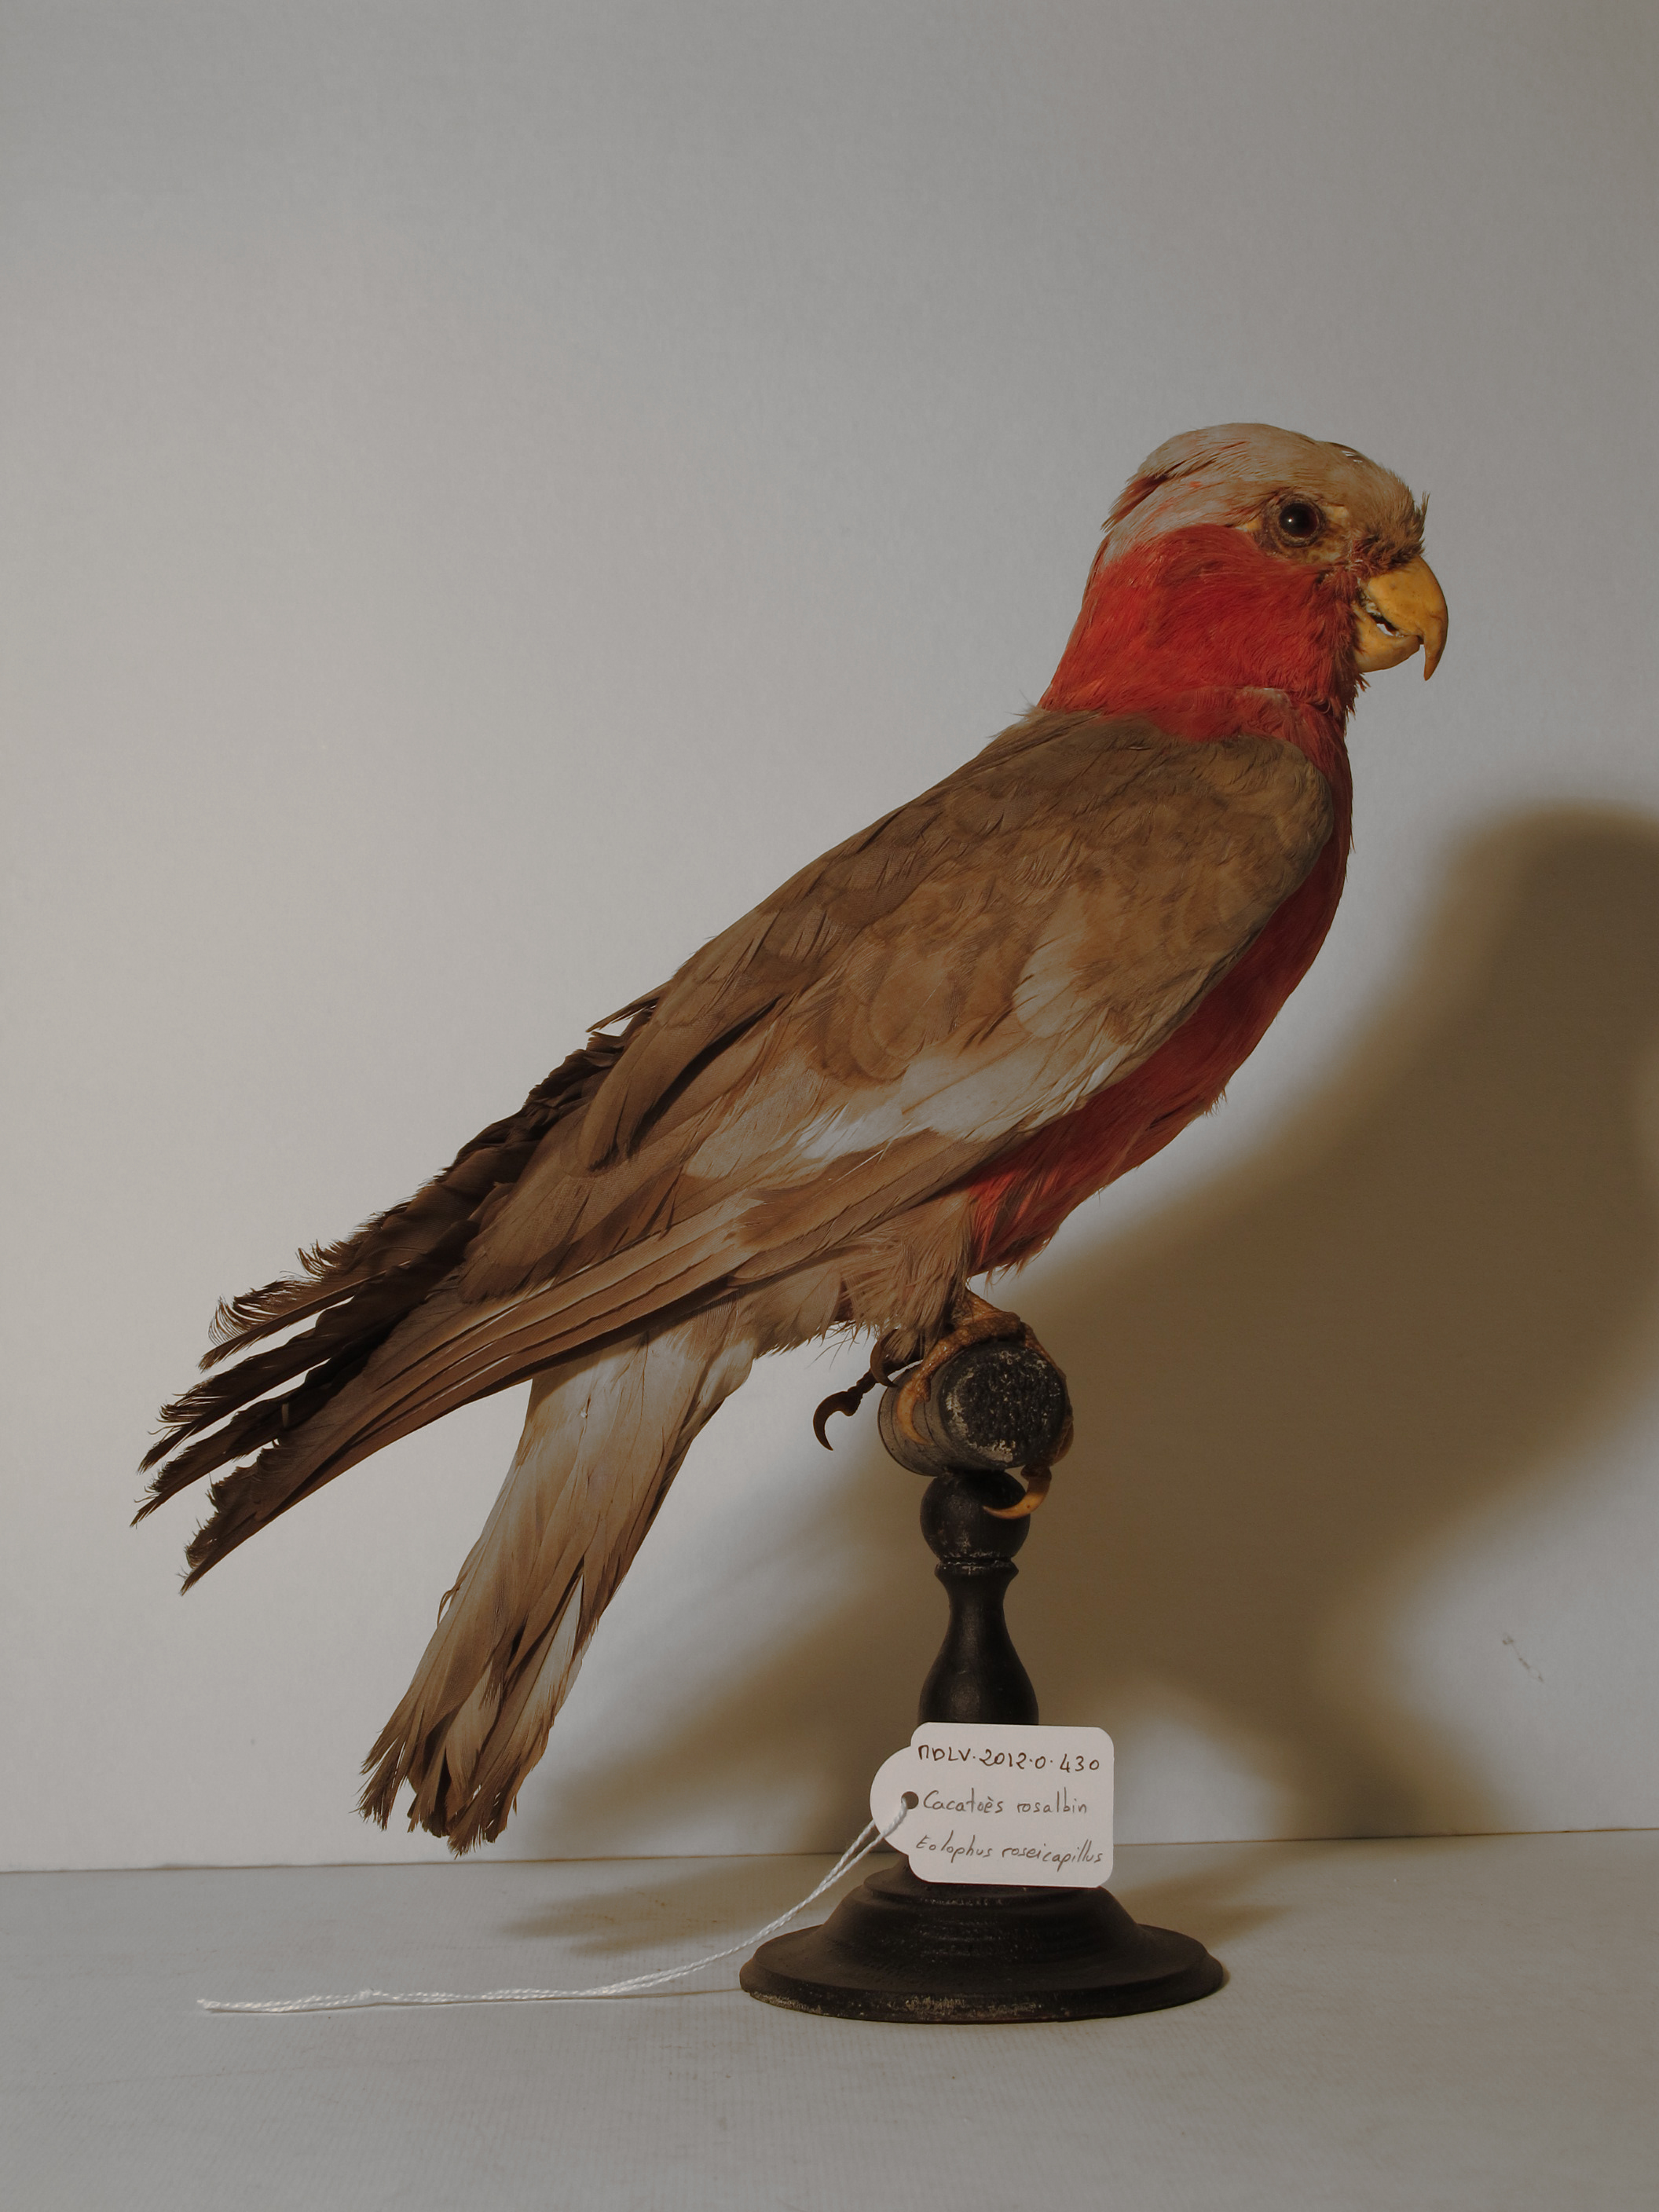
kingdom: Animalia
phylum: Chordata
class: Aves
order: Psittaciformes
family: Psittacidae
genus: Eolophus
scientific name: Eolophus roseicapilla
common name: Galah
